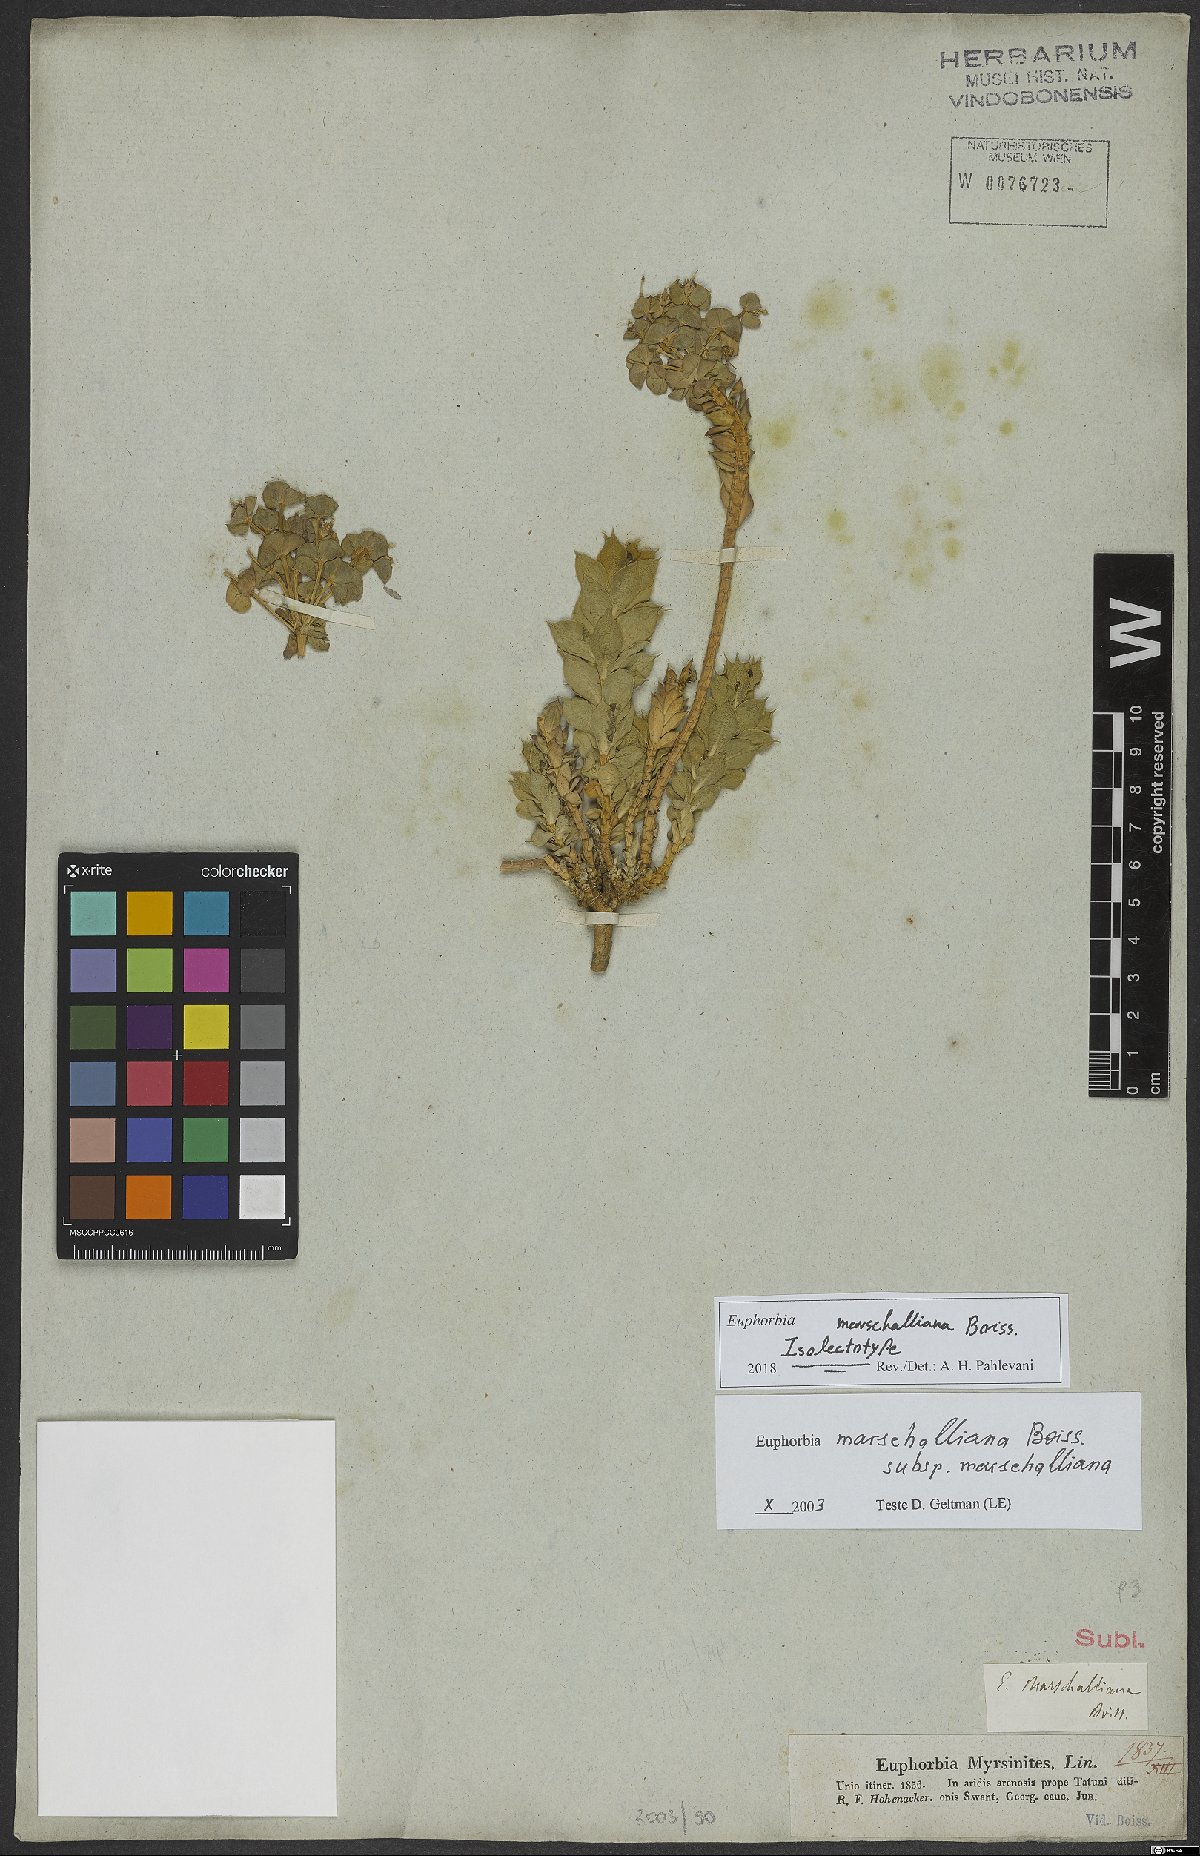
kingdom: Plantae
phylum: Tracheophyta
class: Magnoliopsida
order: Malpighiales
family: Euphorbiaceae
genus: Euphorbia
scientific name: Euphorbia marschalliana
